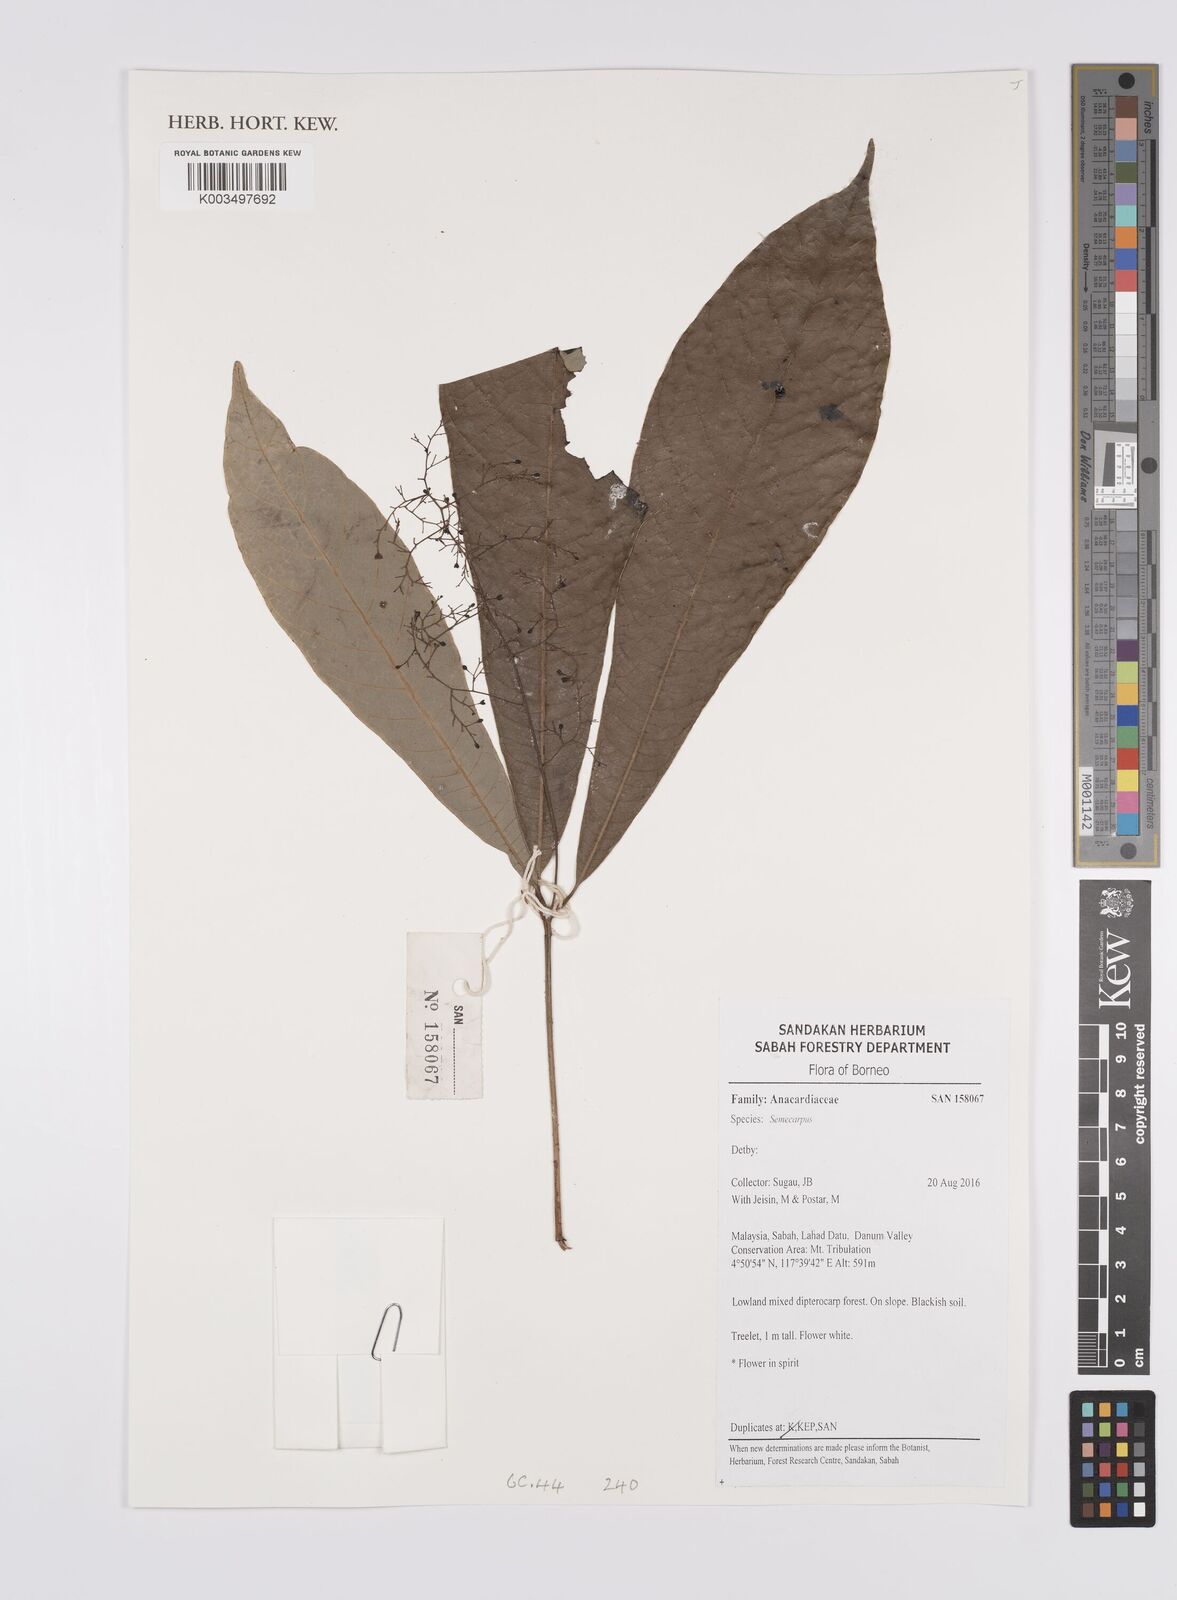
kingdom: Plantae
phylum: Tracheophyta
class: Magnoliopsida
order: Sapindales
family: Anacardiaceae
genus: Semecarpus
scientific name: Semecarpus
